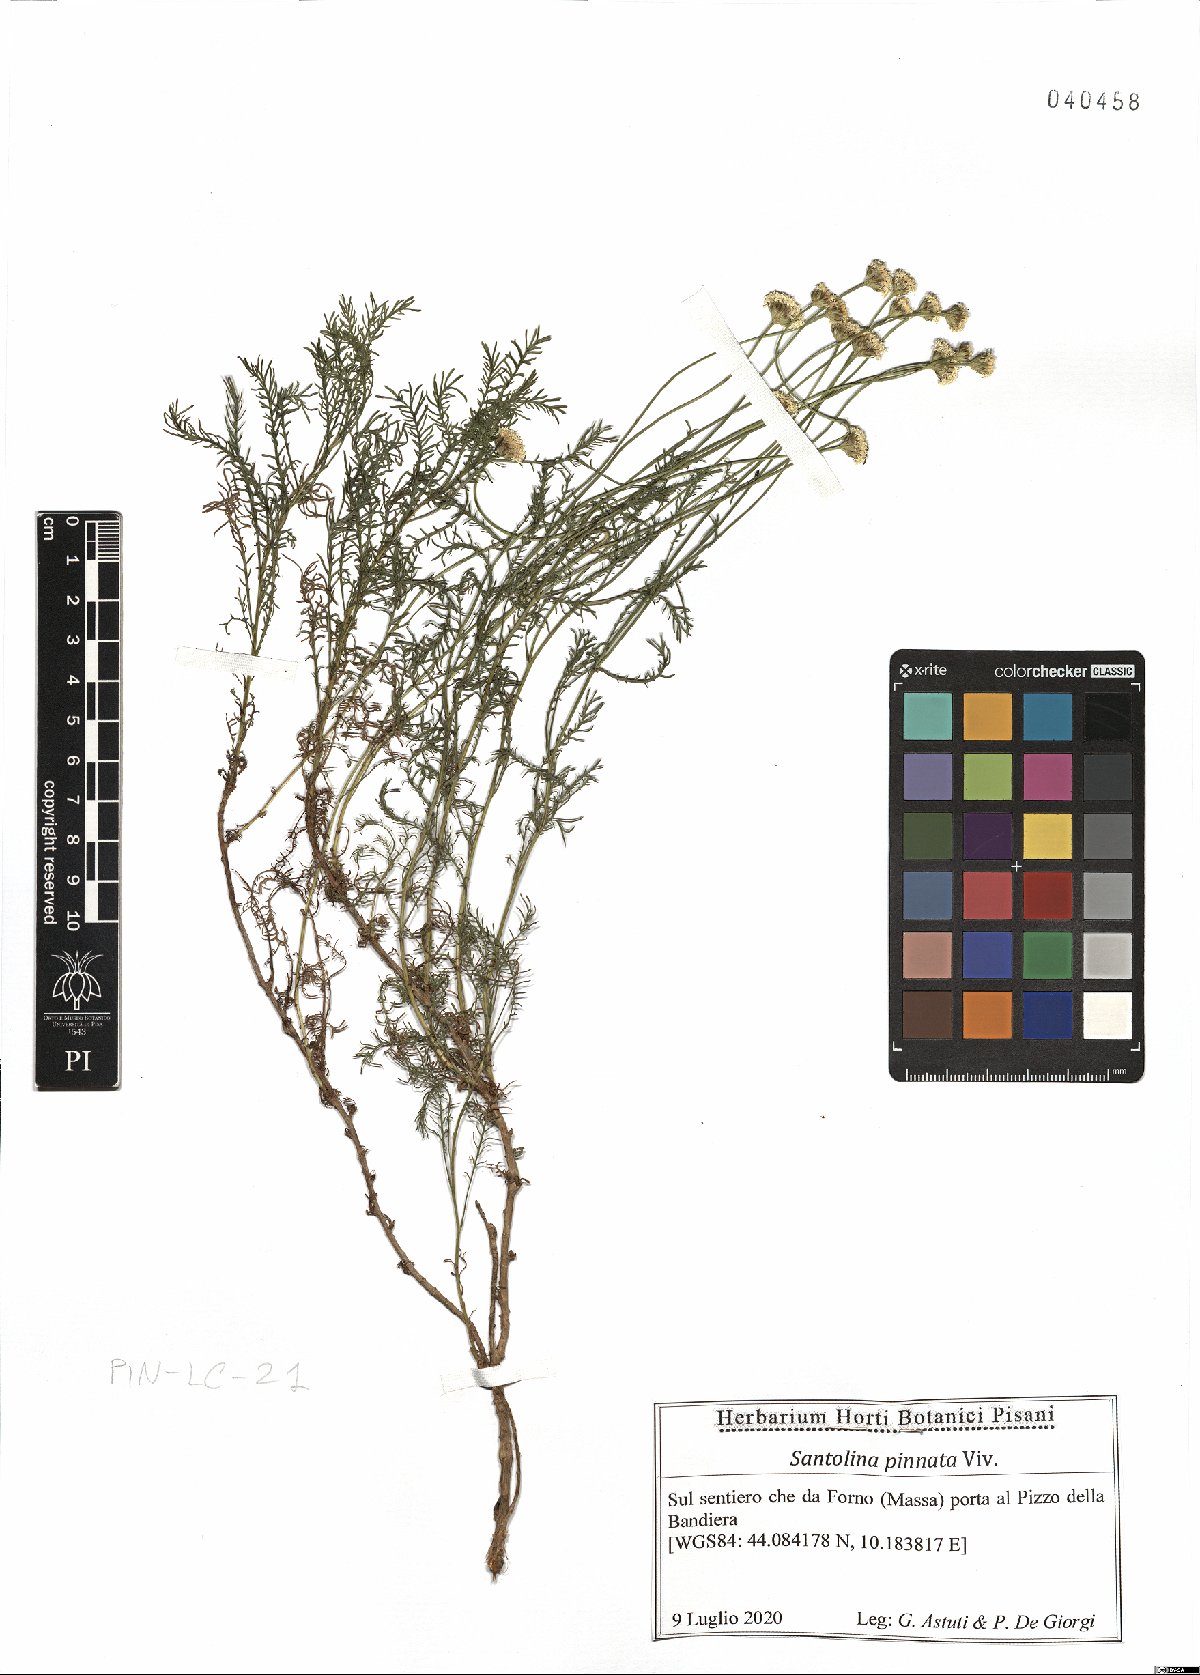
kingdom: Plantae
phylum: Tracheophyta
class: Magnoliopsida
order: Asterales
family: Asteraceae
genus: Santolina
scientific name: Santolina pinnata
